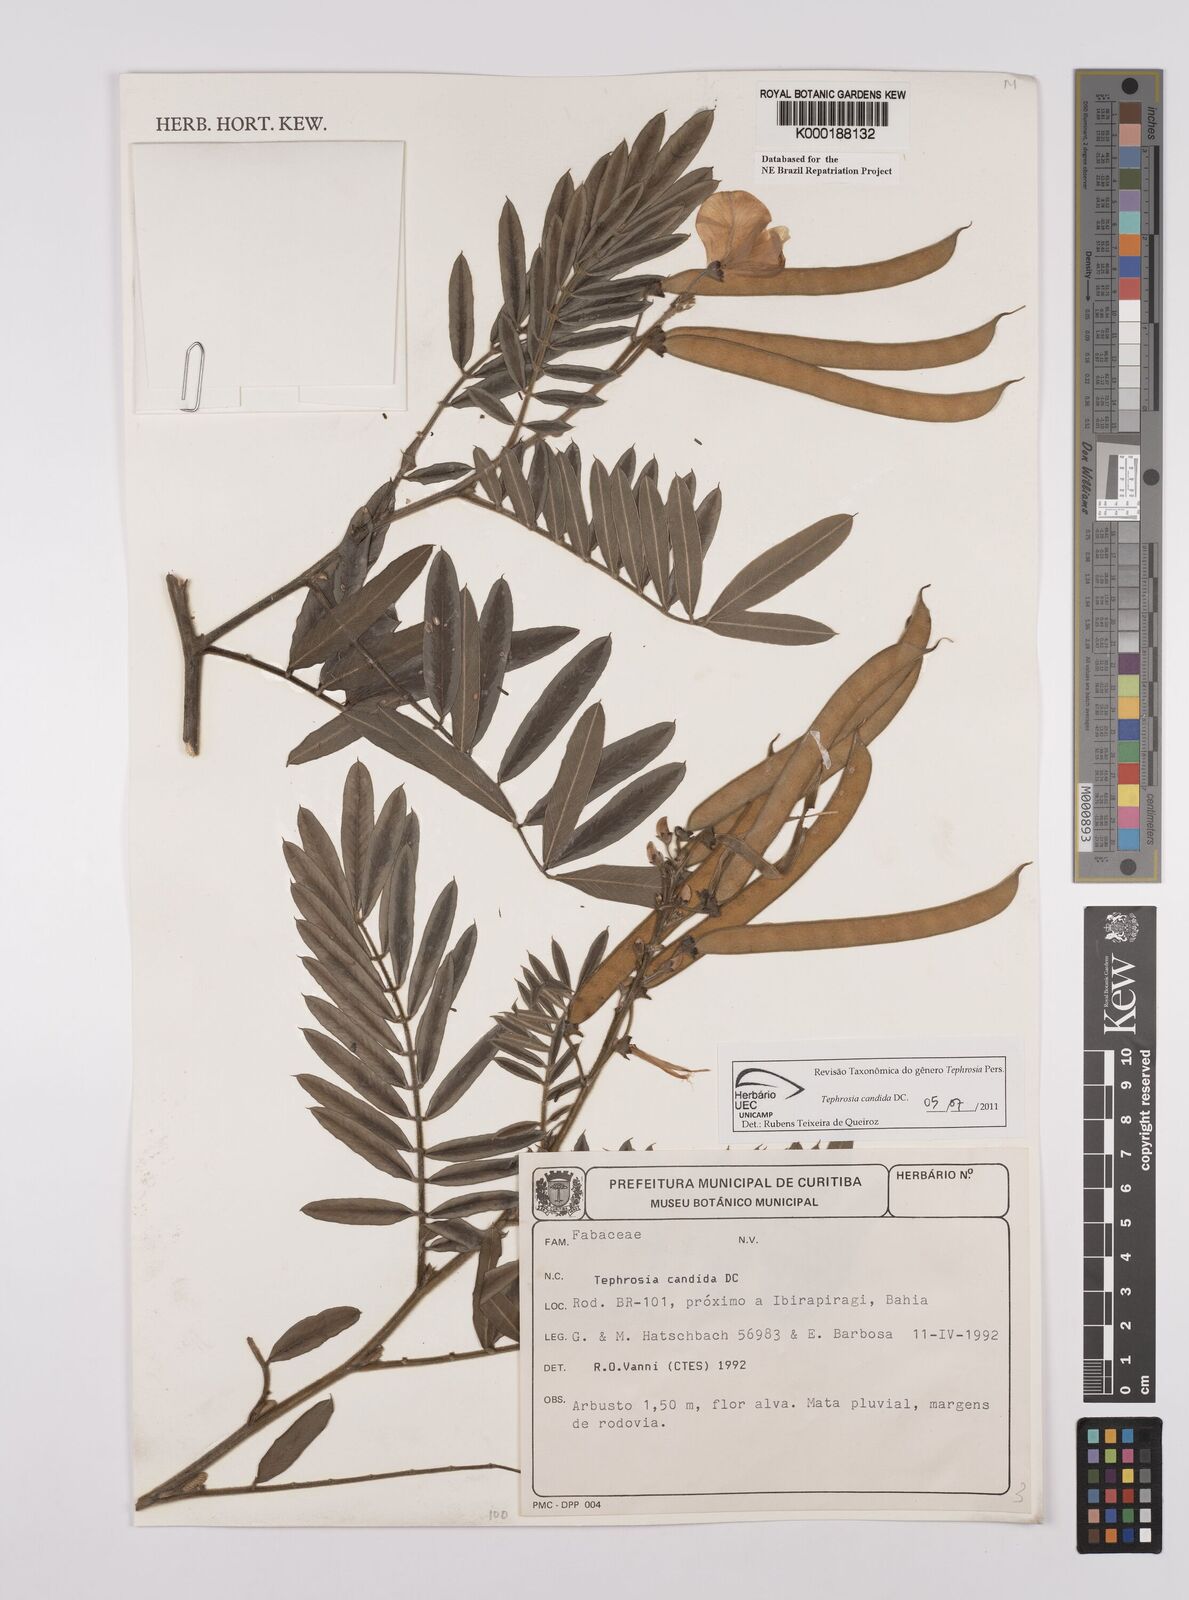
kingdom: Plantae
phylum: Tracheophyta
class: Magnoliopsida
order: Fabales
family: Fabaceae
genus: Tephrosia
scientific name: Tephrosia candida
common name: White tephrosia
